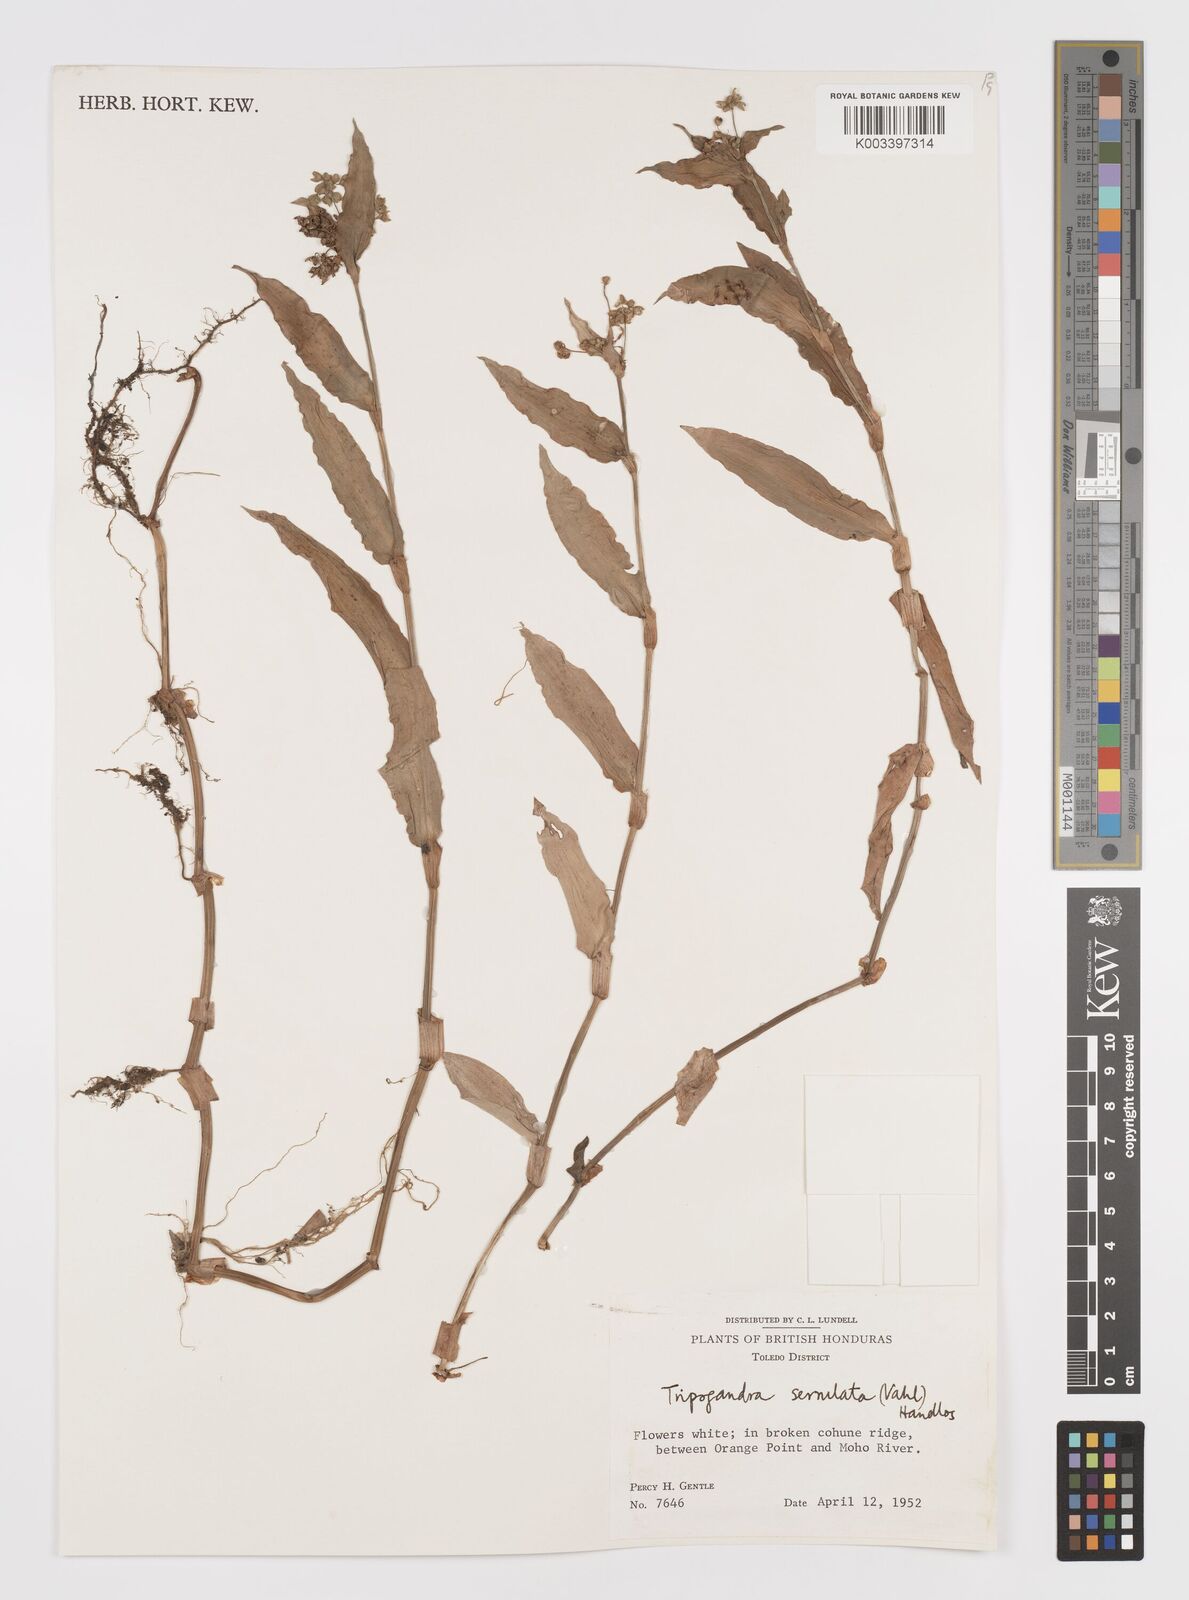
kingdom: Plantae
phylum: Tracheophyta
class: Liliopsida
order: Commelinales
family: Commelinaceae
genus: Callisia
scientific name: Callisia serrulata
